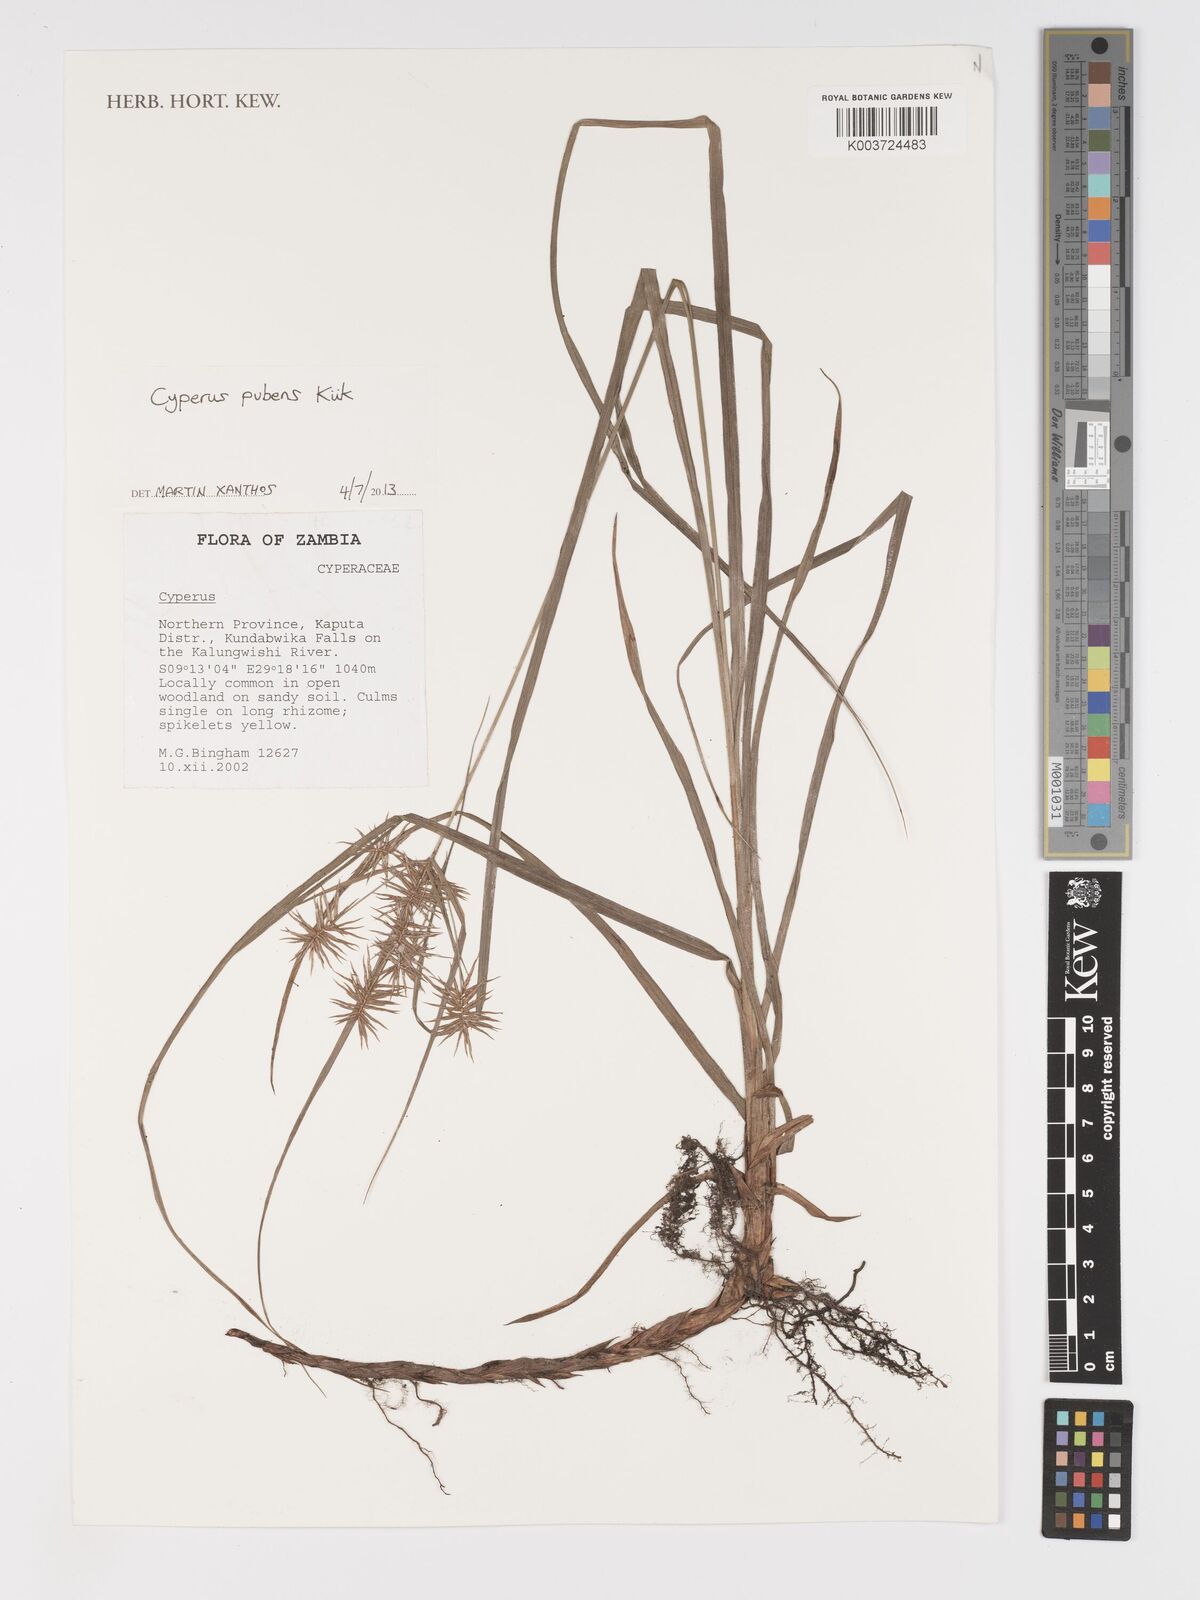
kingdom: Plantae
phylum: Tracheophyta
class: Liliopsida
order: Poales
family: Cyperaceae
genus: Cyperus
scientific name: Cyperus pubens
